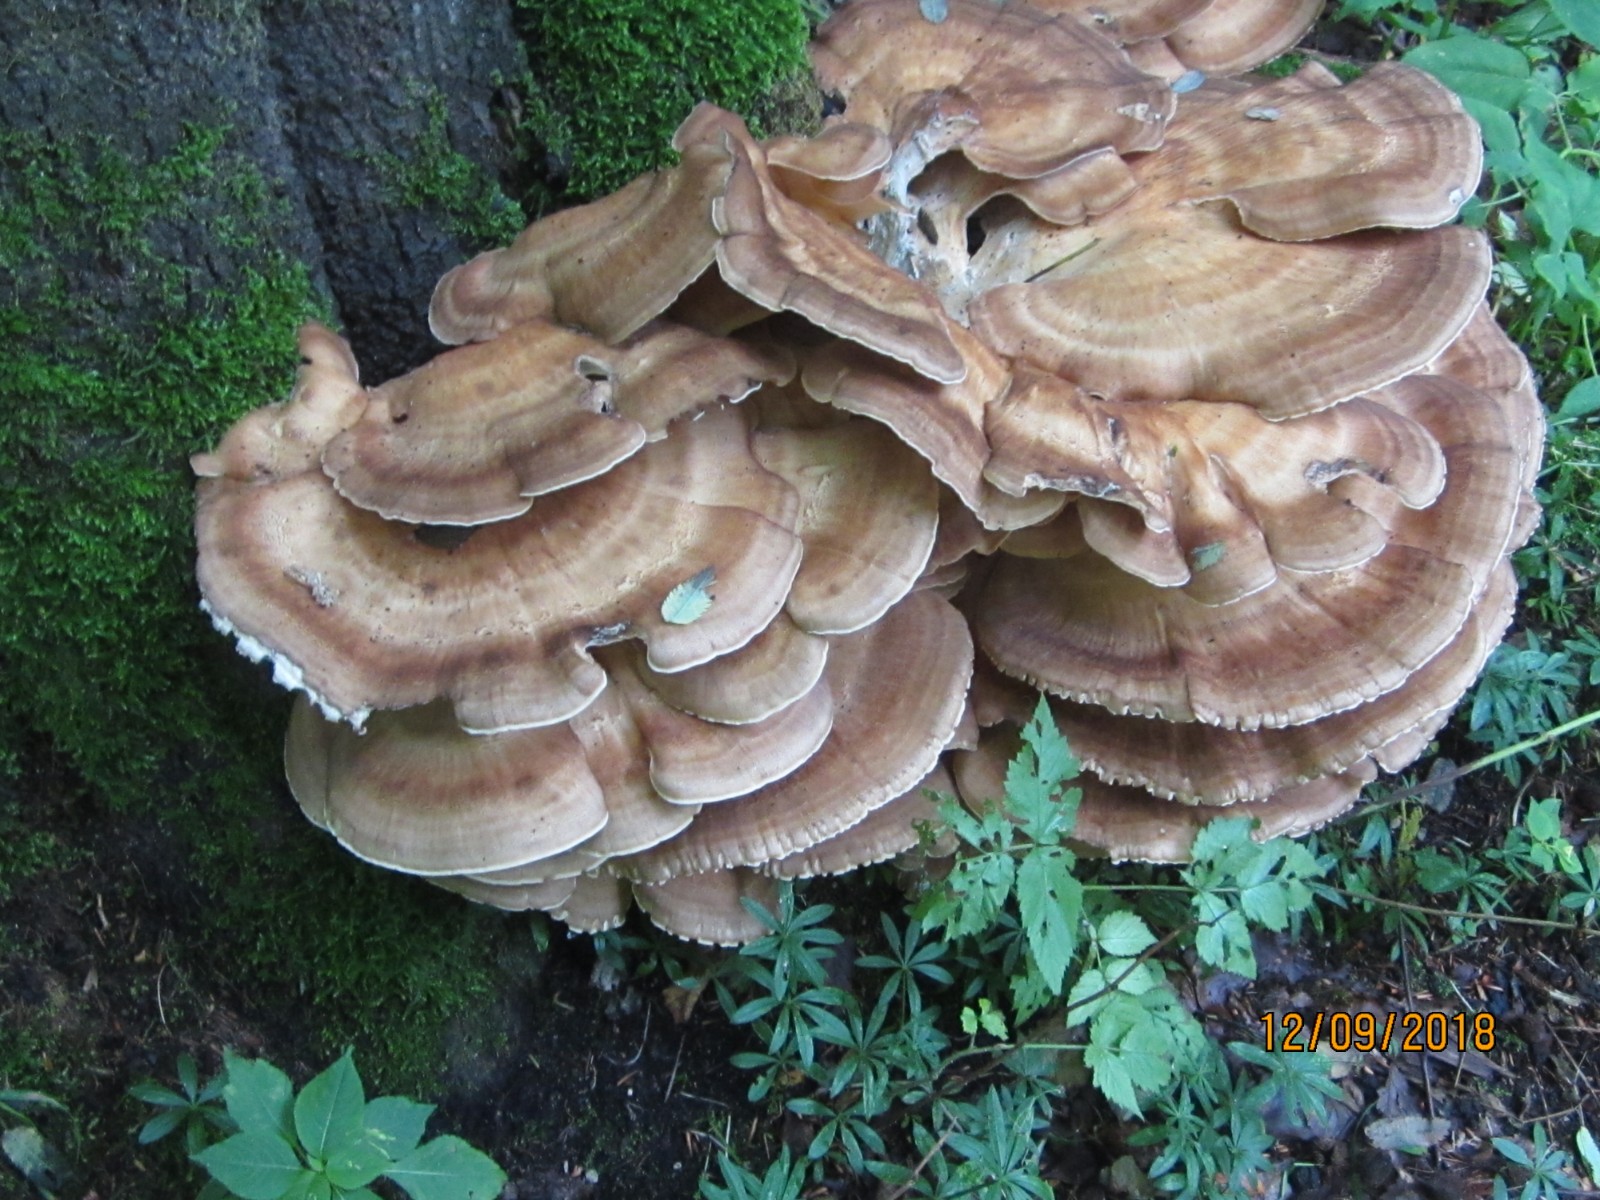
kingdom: Fungi
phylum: Basidiomycota
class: Agaricomycetes
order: Polyporales
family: Meripilaceae
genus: Meripilus
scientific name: Meripilus giganteus
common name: kæmpeporesvamp
